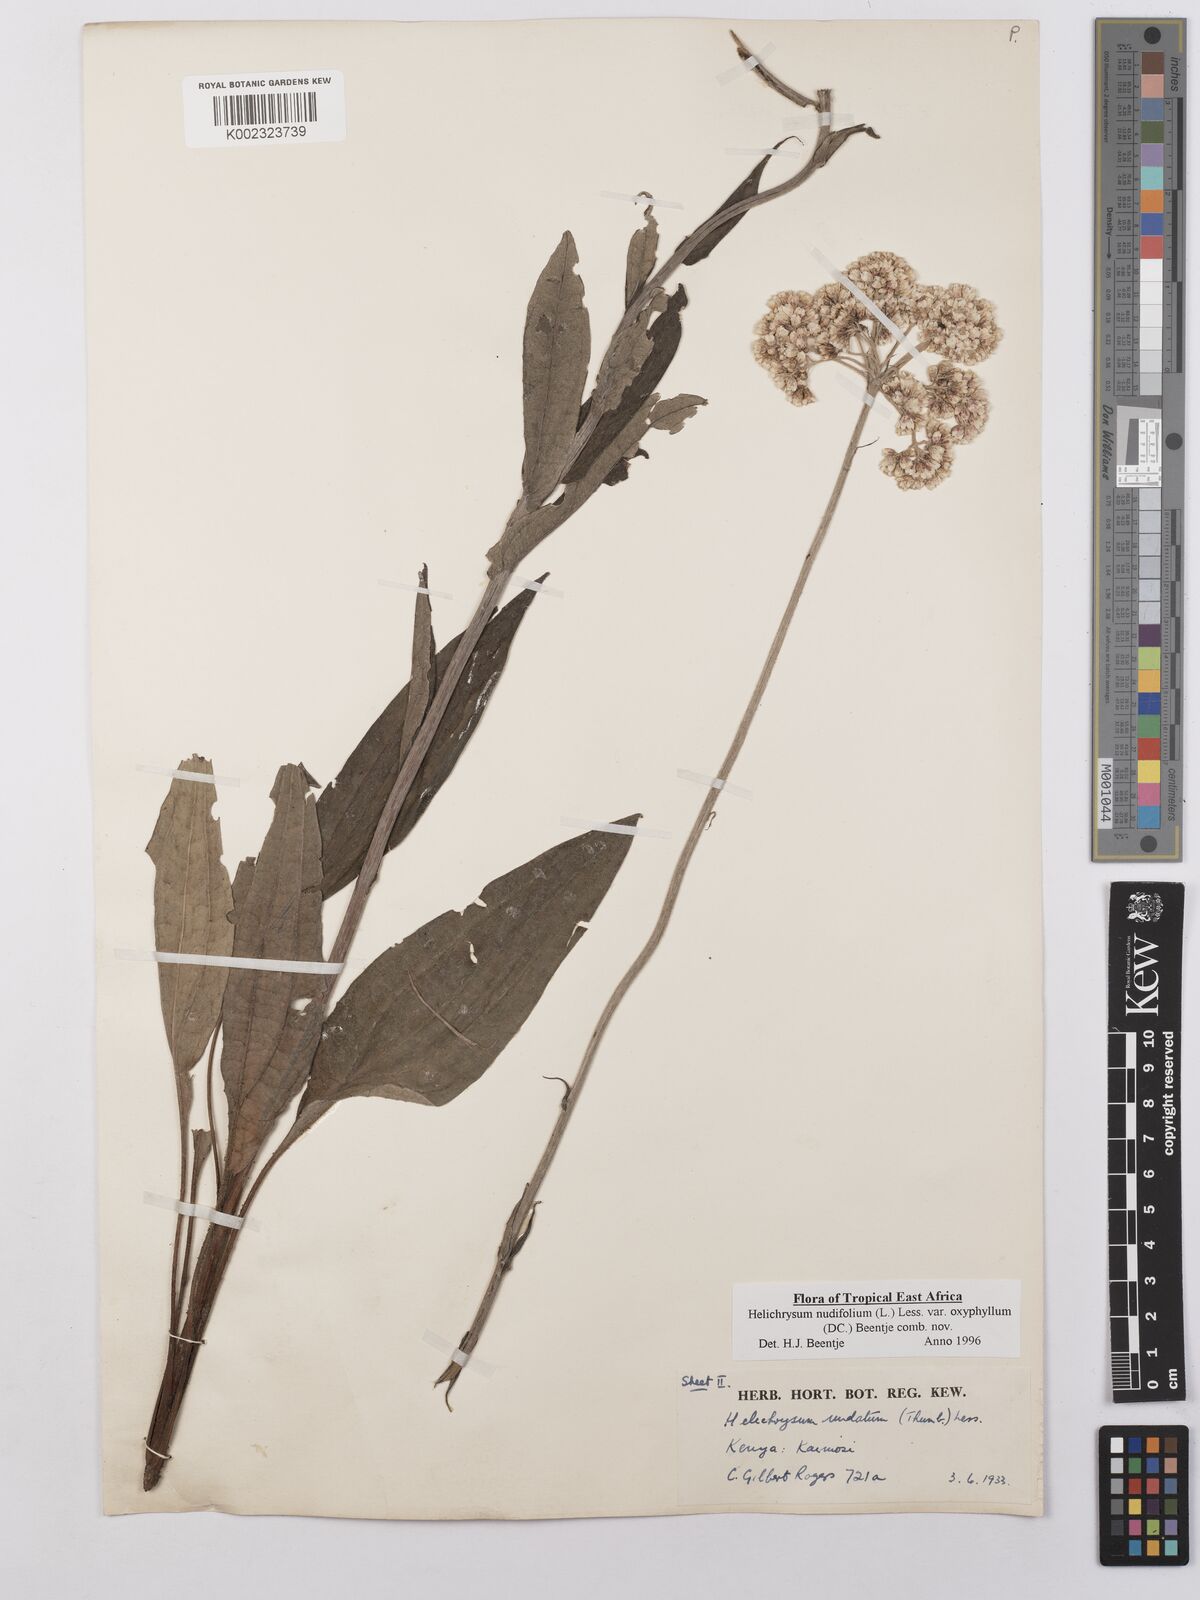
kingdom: Plantae
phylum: Tracheophyta
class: Magnoliopsida
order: Asterales
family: Asteraceae
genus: Helichrysum
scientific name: Helichrysum nudifolium
